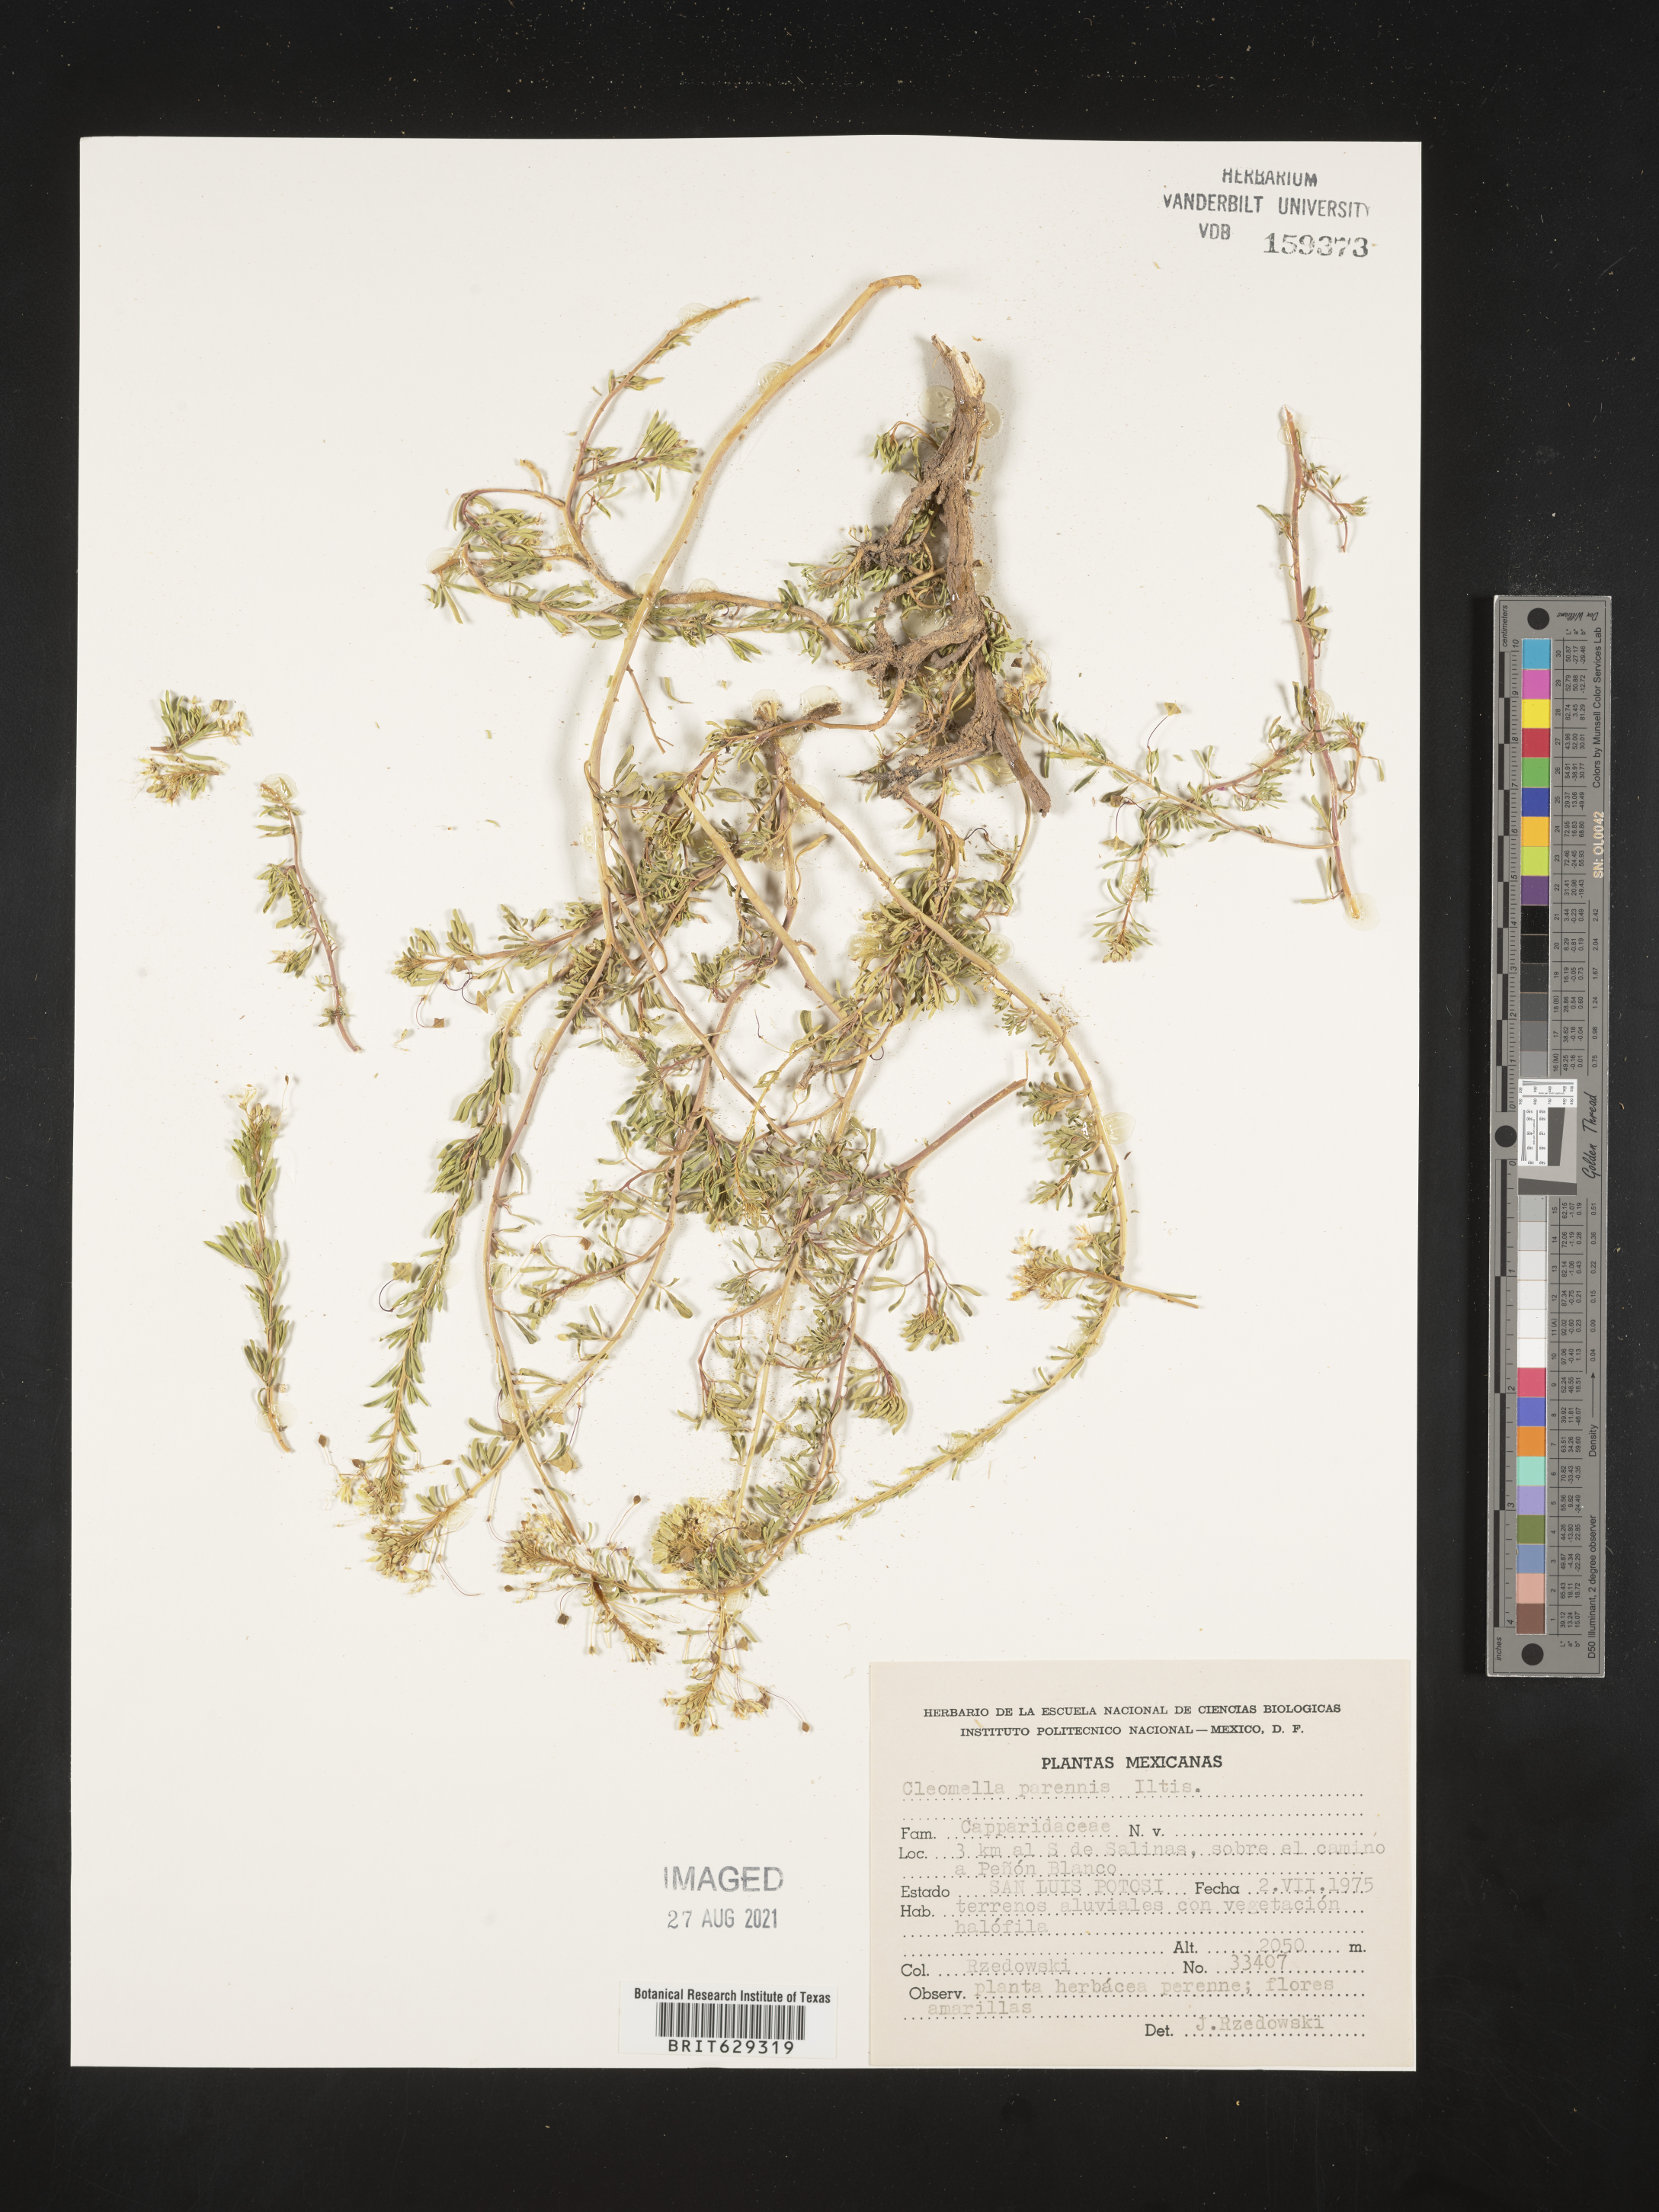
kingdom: Plantae
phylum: Tracheophyta
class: Magnoliopsida
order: Brassicales
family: Cleomaceae
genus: Cleomella
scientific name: Cleomella
